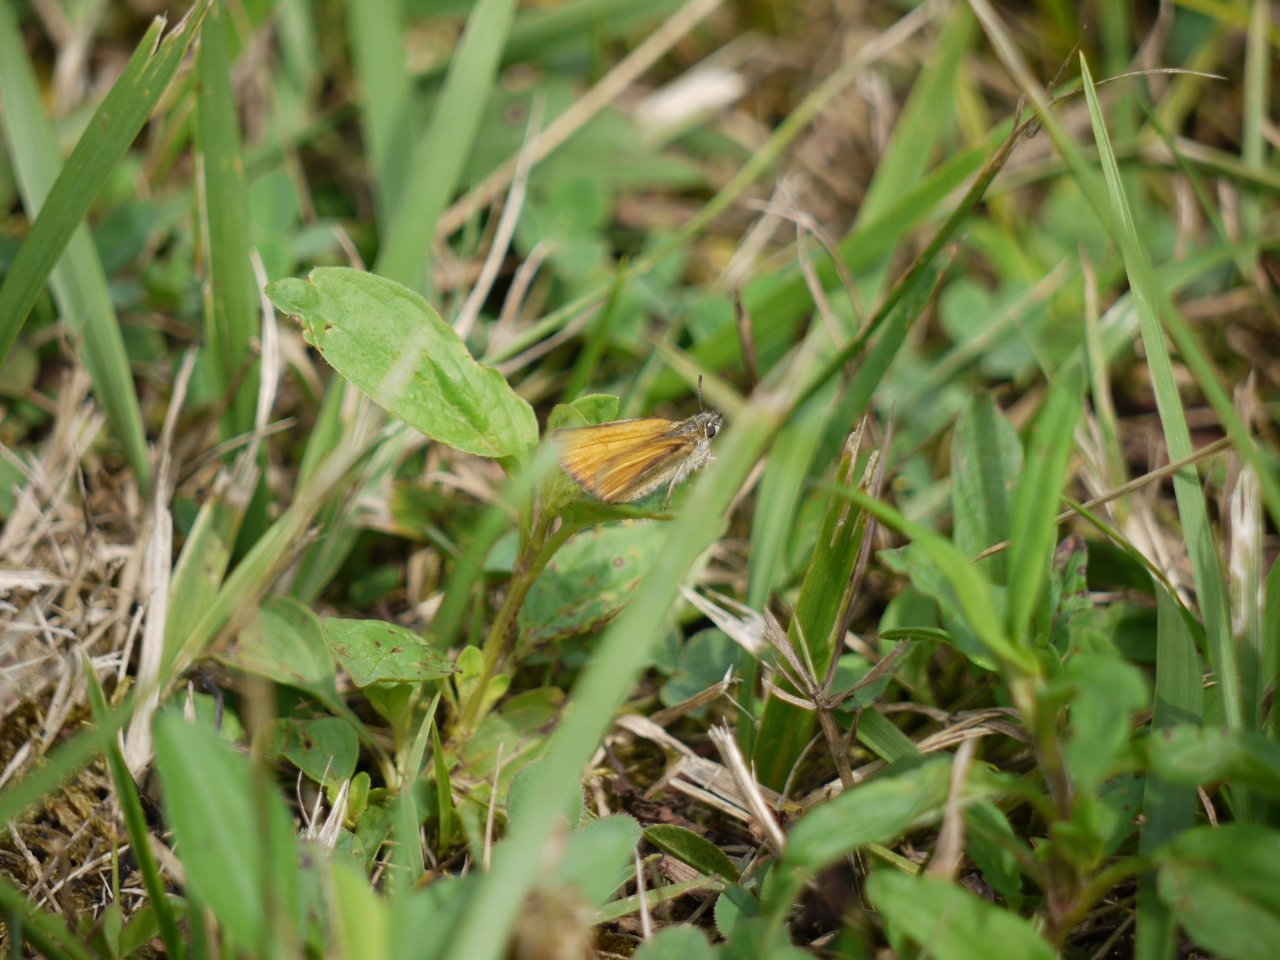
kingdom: Animalia
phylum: Arthropoda
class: Insecta
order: Lepidoptera
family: Hesperiidae
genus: Thymelicus
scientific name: Thymelicus lineola
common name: European Skipper
